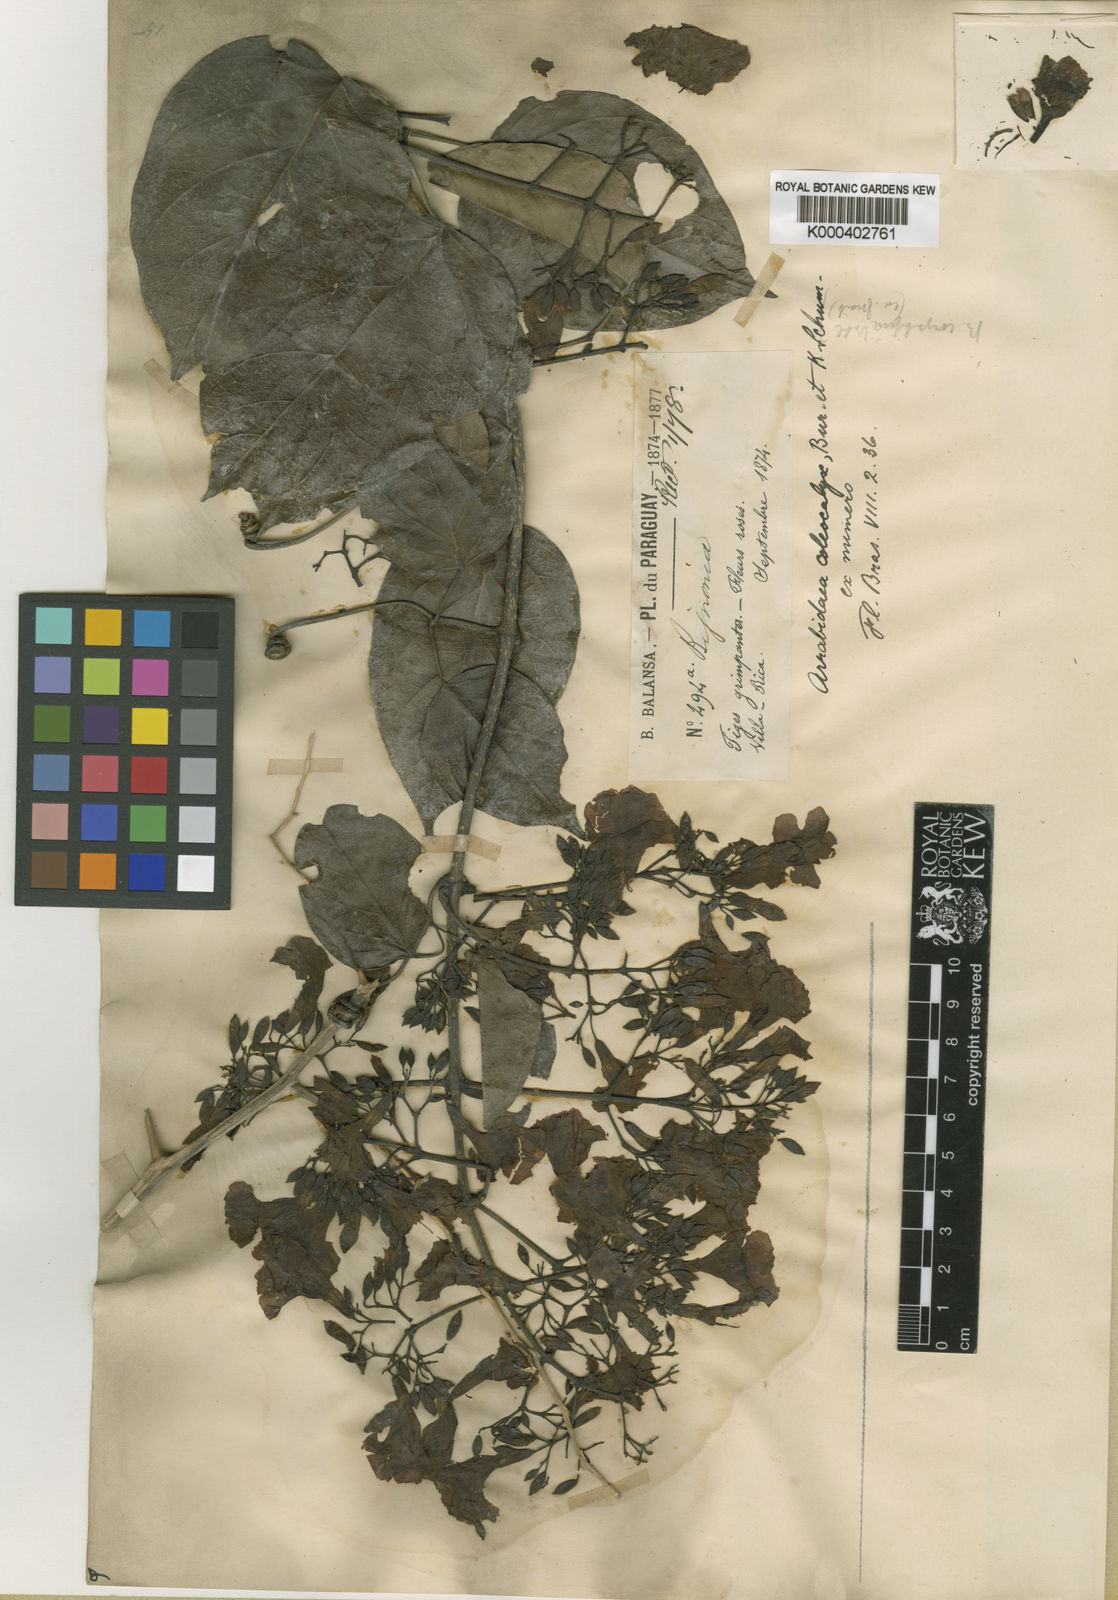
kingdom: Plantae
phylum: Tracheophyta
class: Magnoliopsida
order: Lamiales
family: Bignoniaceae
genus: Fridericia
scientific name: Fridericia caudigera
